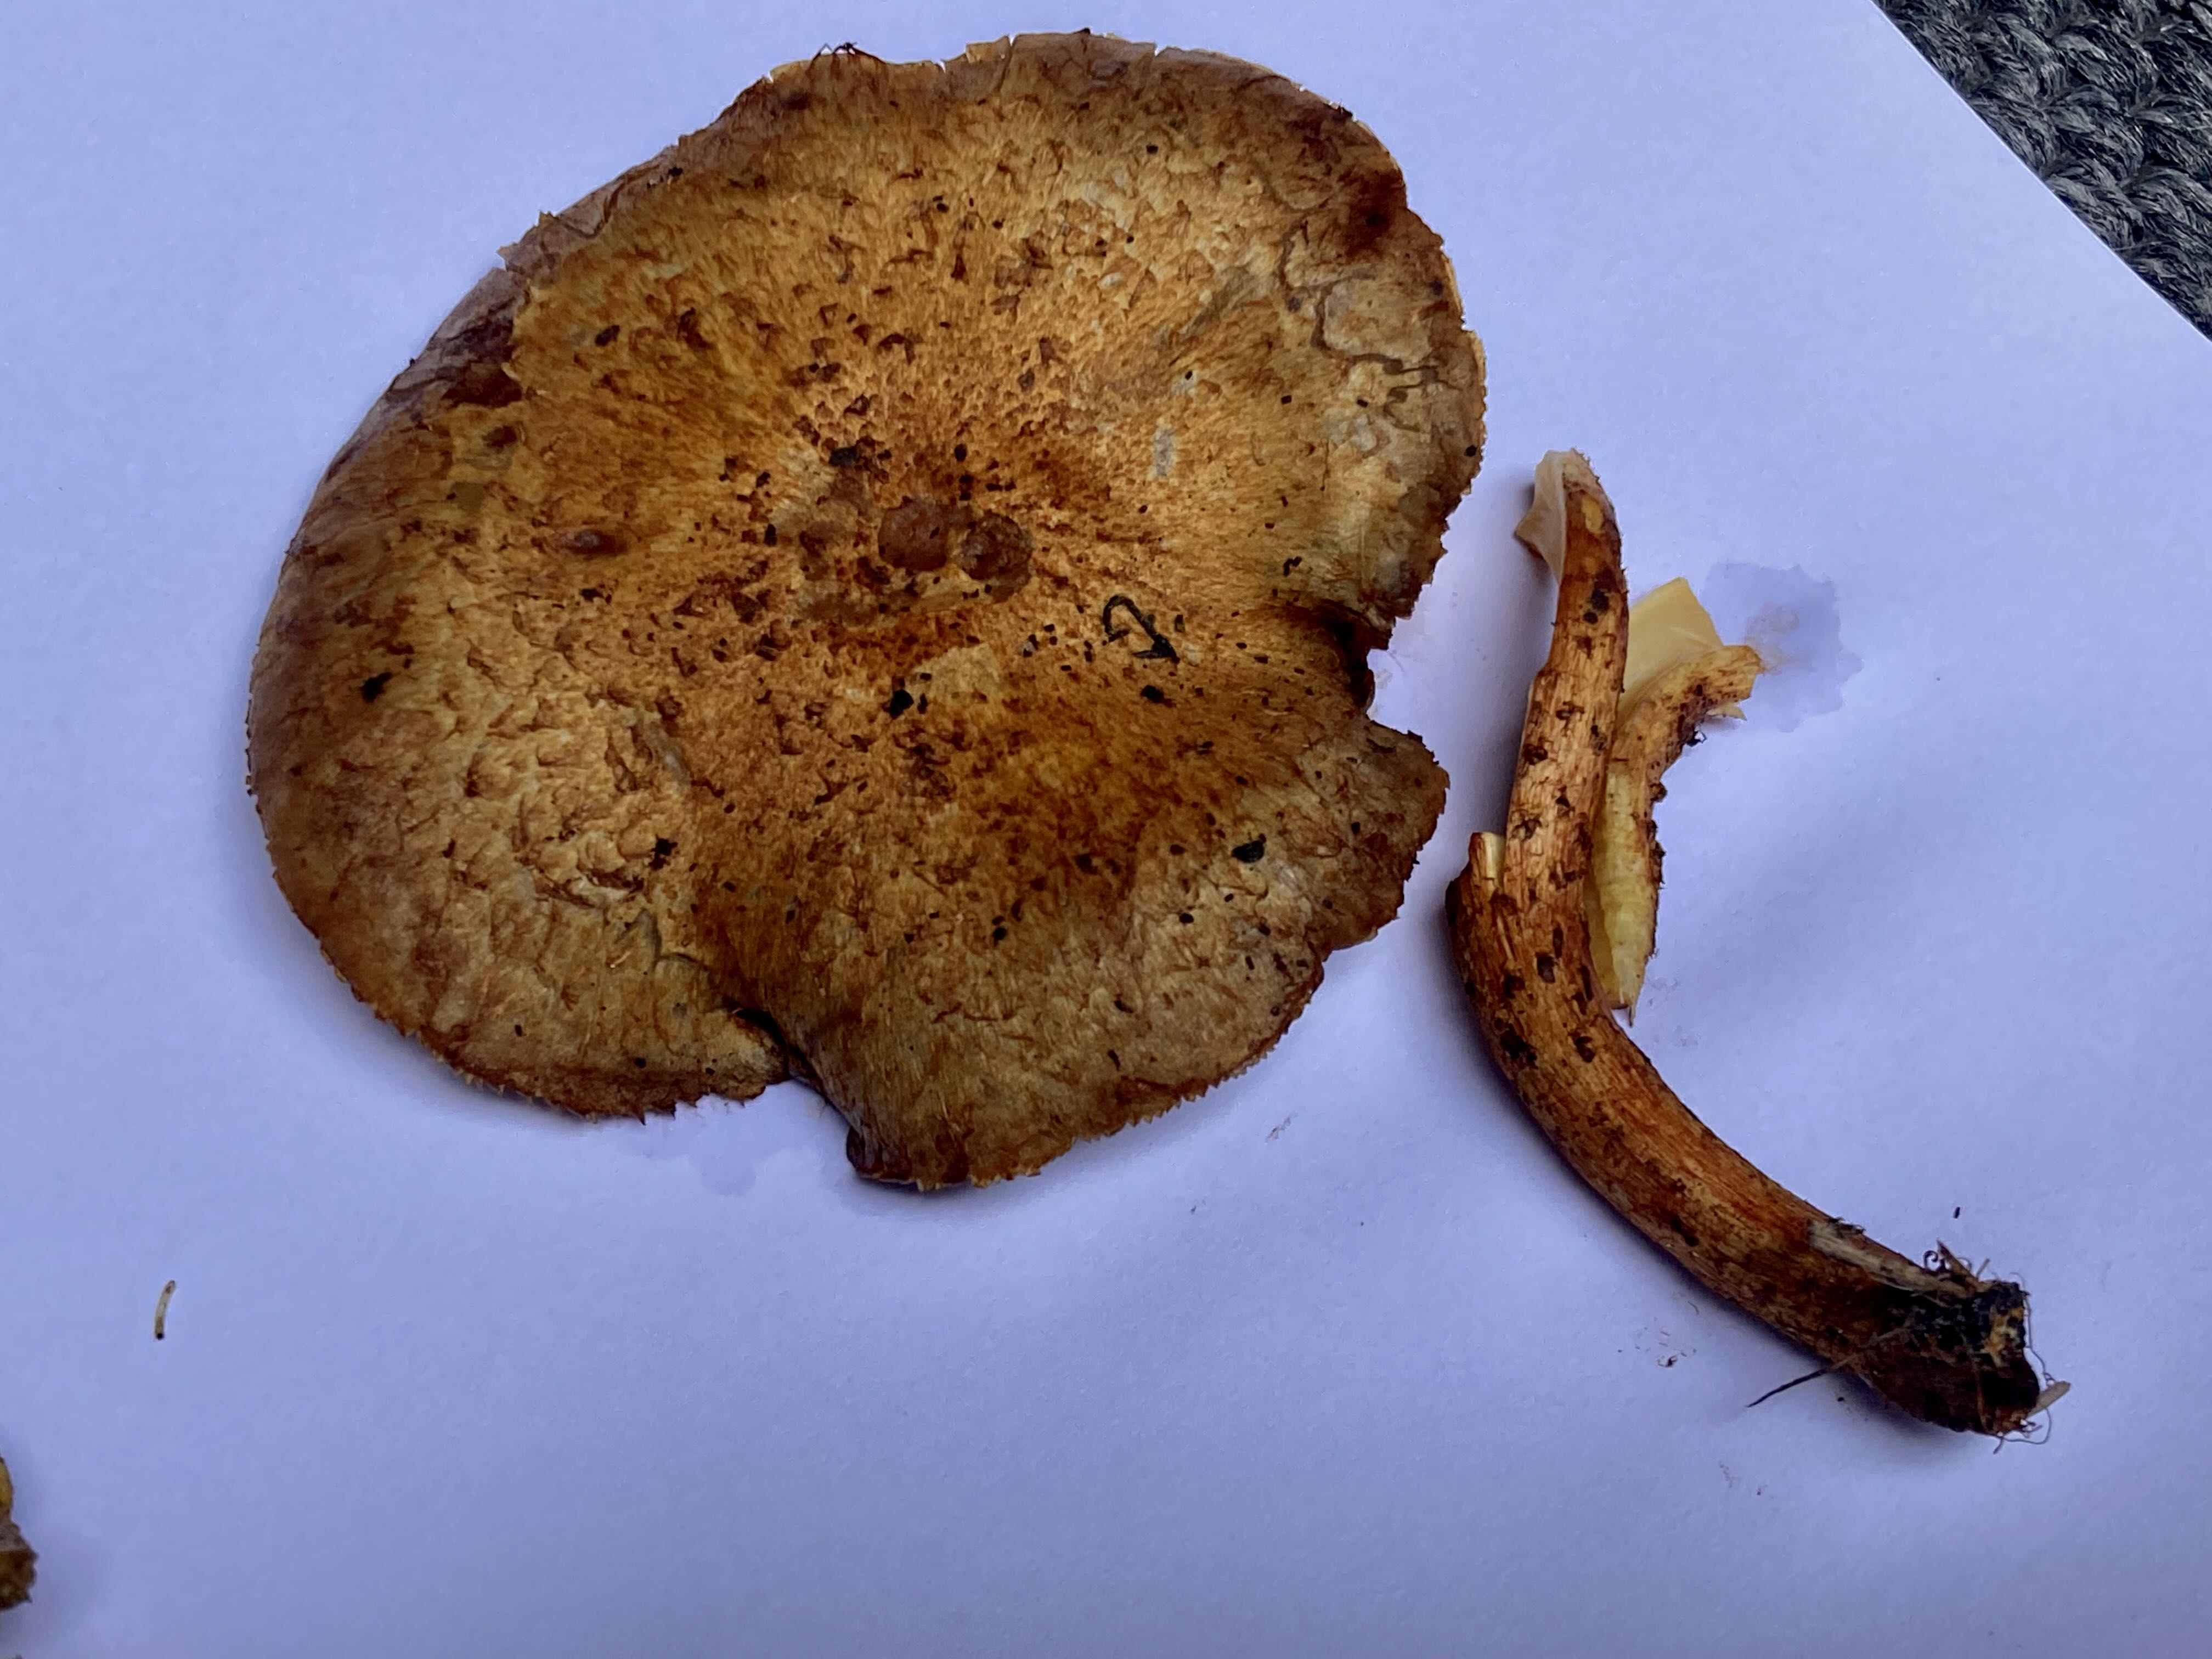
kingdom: Fungi
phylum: Basidiomycota
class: Agaricomycetes
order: Agaricales
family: Strophariaceae
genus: Pholiota
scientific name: Pholiota squarrosa
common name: krumskællet skælhat
